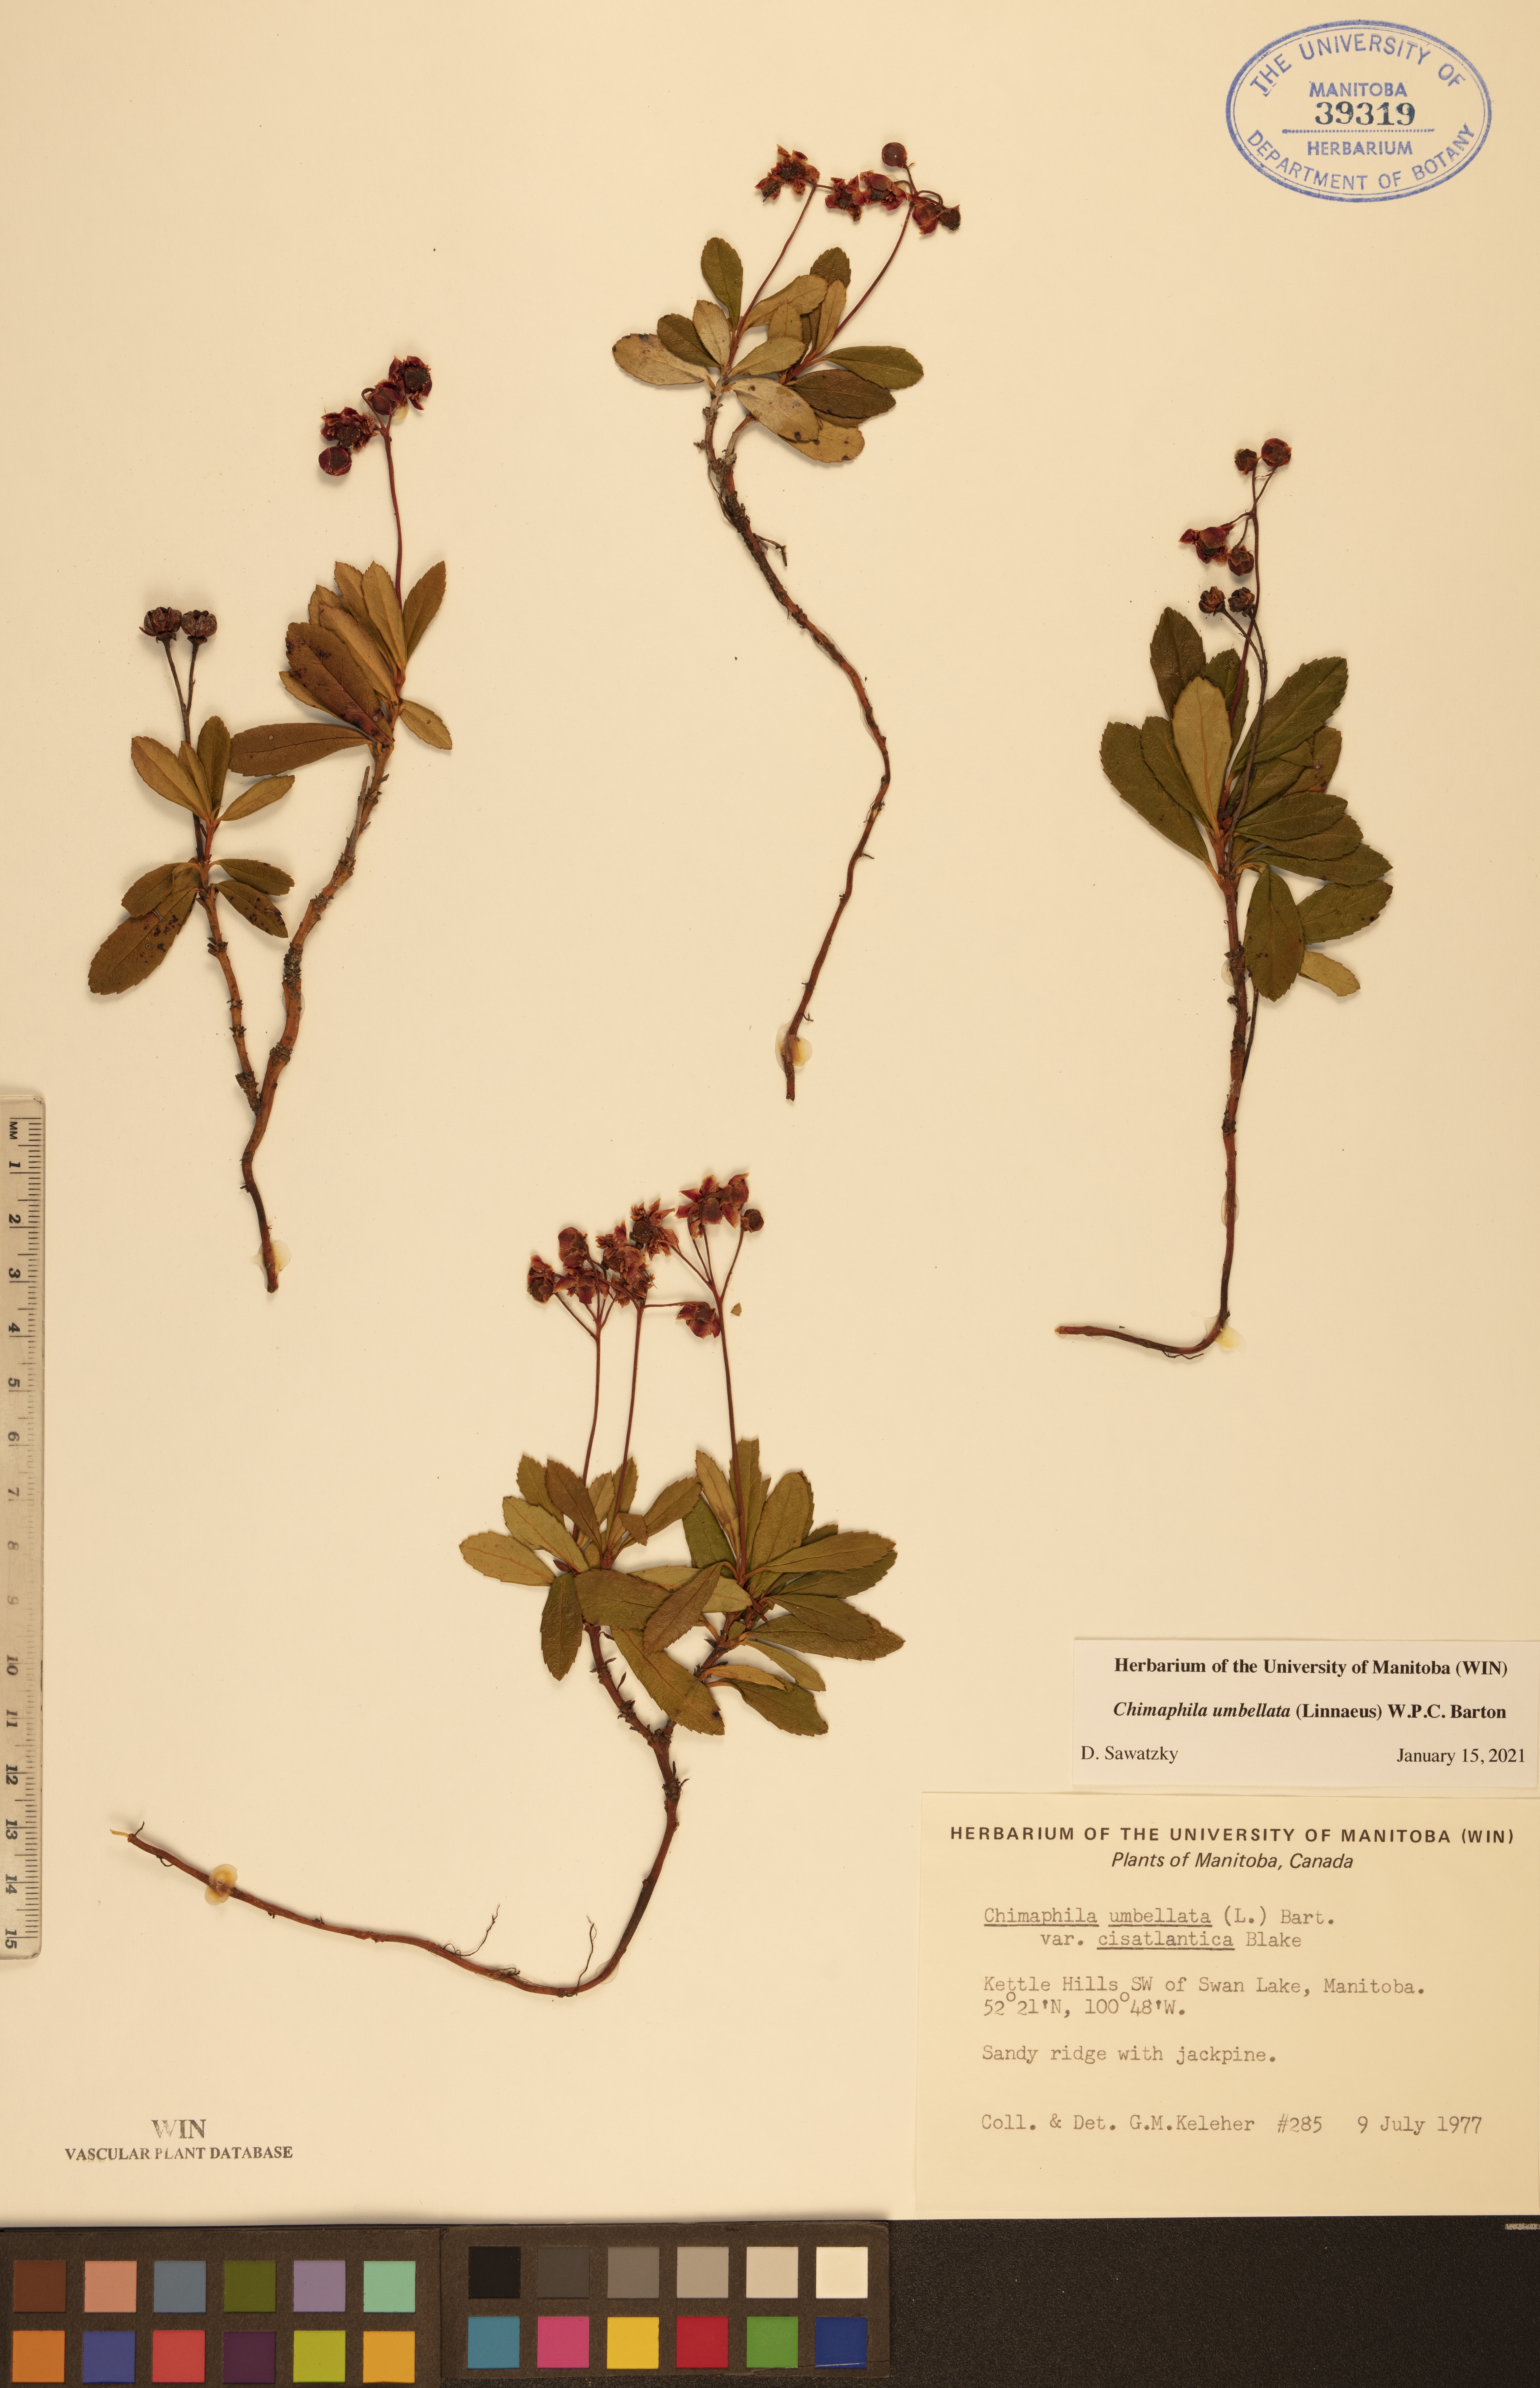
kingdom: Plantae
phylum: Tracheophyta
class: Magnoliopsida
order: Ericales
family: Ericaceae
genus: Chimaphila
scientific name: Chimaphila umbellata
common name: Pipsissewa
